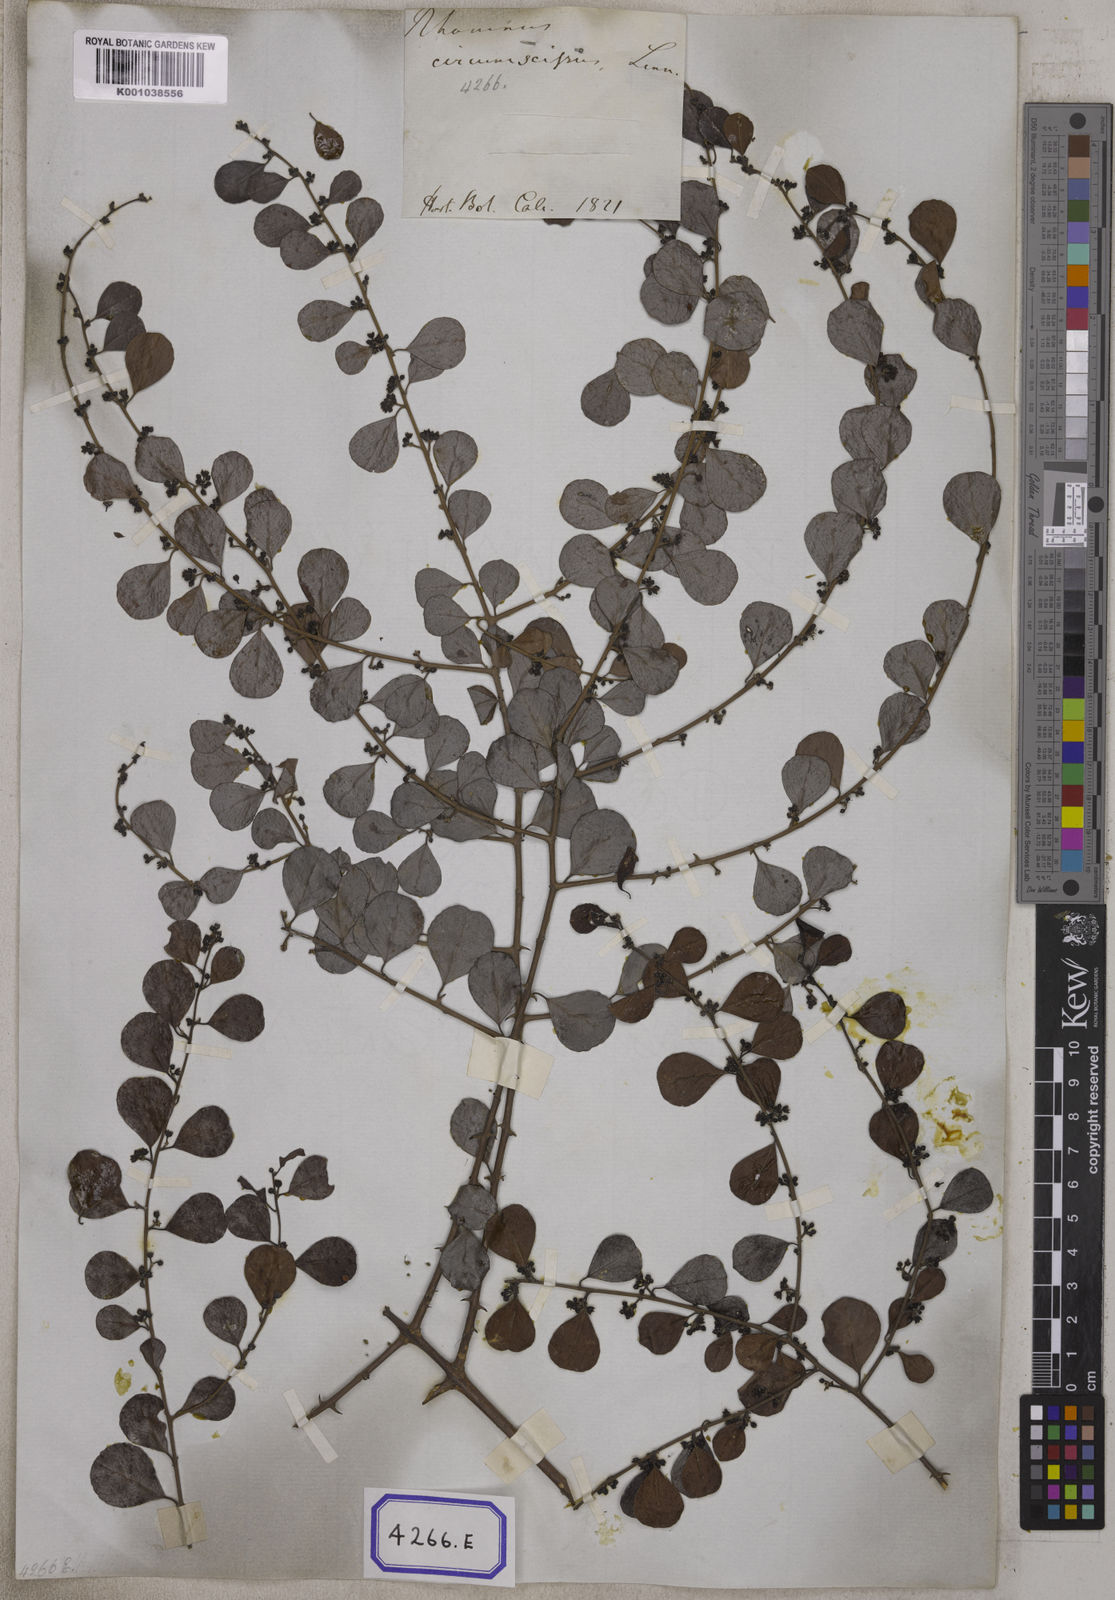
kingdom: Plantae
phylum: Tracheophyta
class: Magnoliopsida
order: Rosales
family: Rhamnaceae
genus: Scutia
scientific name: Scutia myrtina
